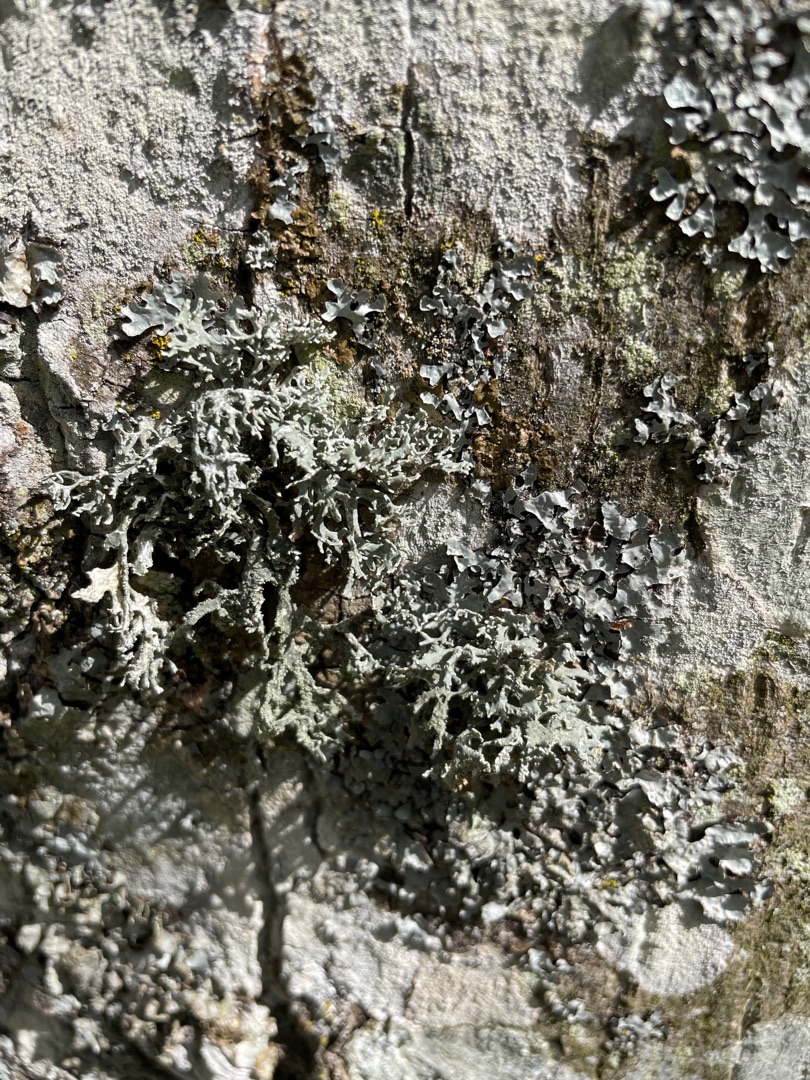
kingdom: Fungi
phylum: Ascomycota
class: Lecanoromycetes
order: Lecanorales
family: Parmeliaceae
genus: Evernia
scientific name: Evernia prunastri
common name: Almindelig slåenlav
